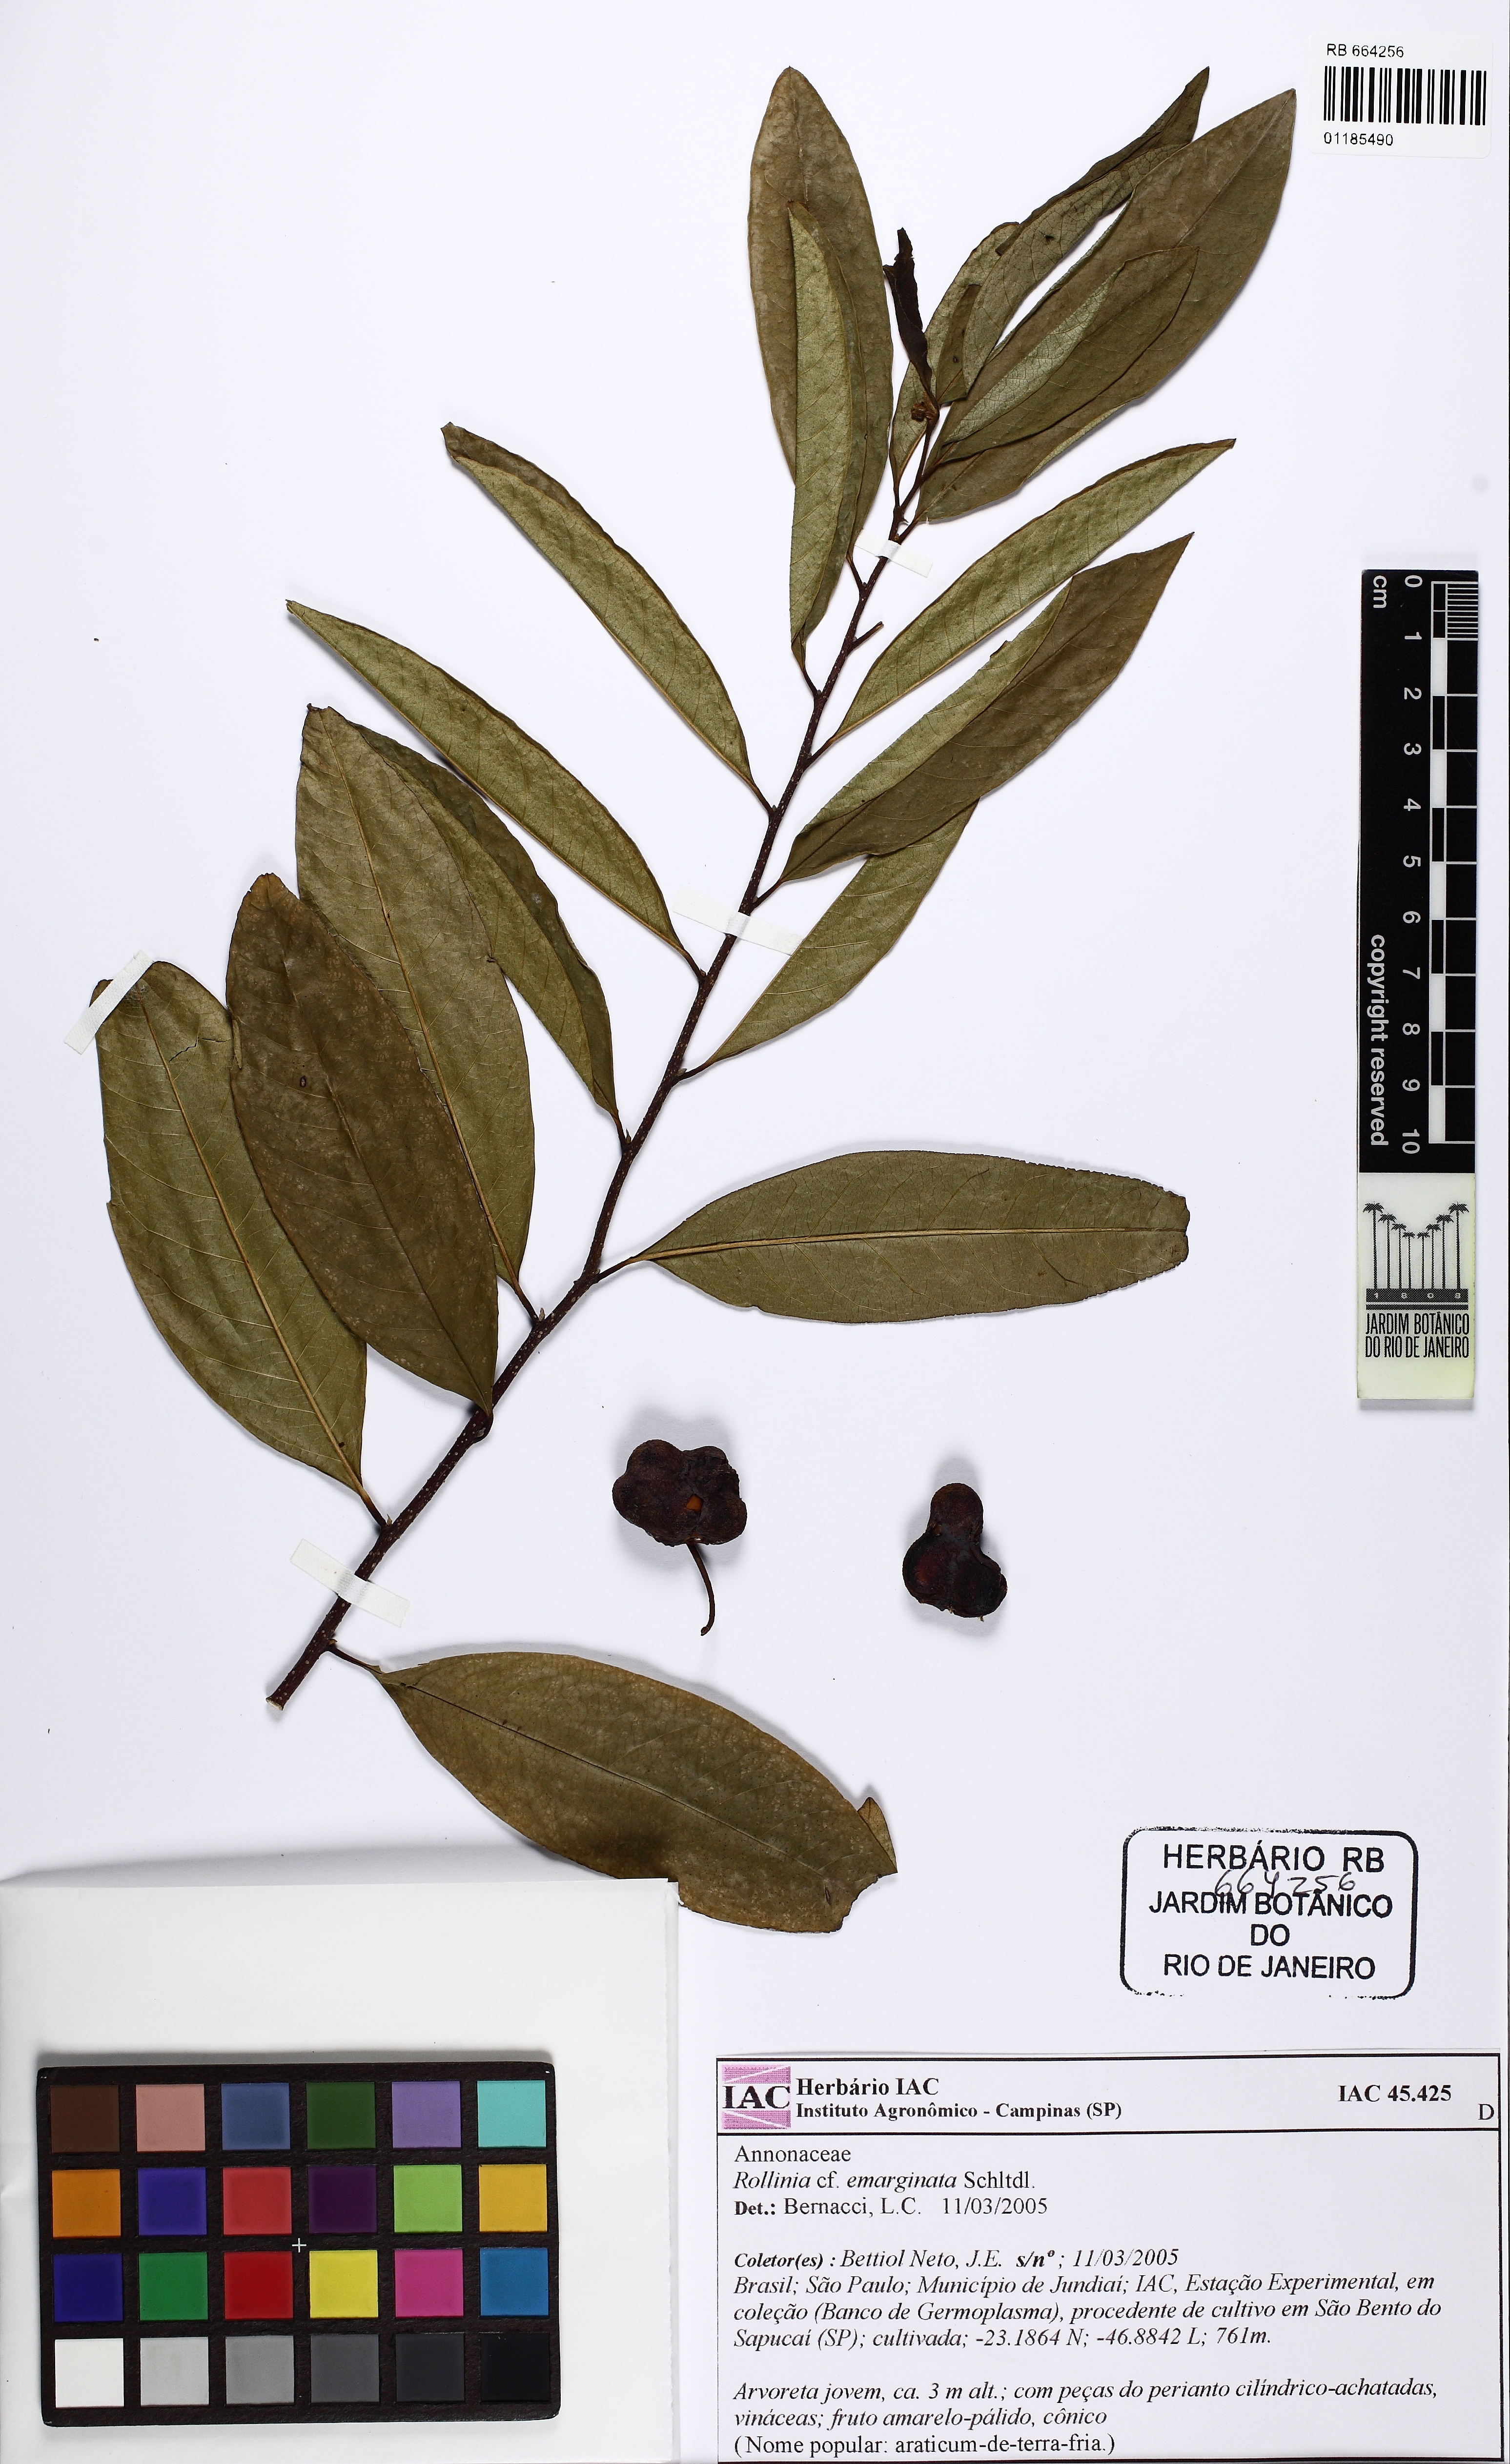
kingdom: Plantae
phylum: Tracheophyta
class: Magnoliopsida
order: Magnoliales
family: Annonaceae
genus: Annona
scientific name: Annona emarginata
